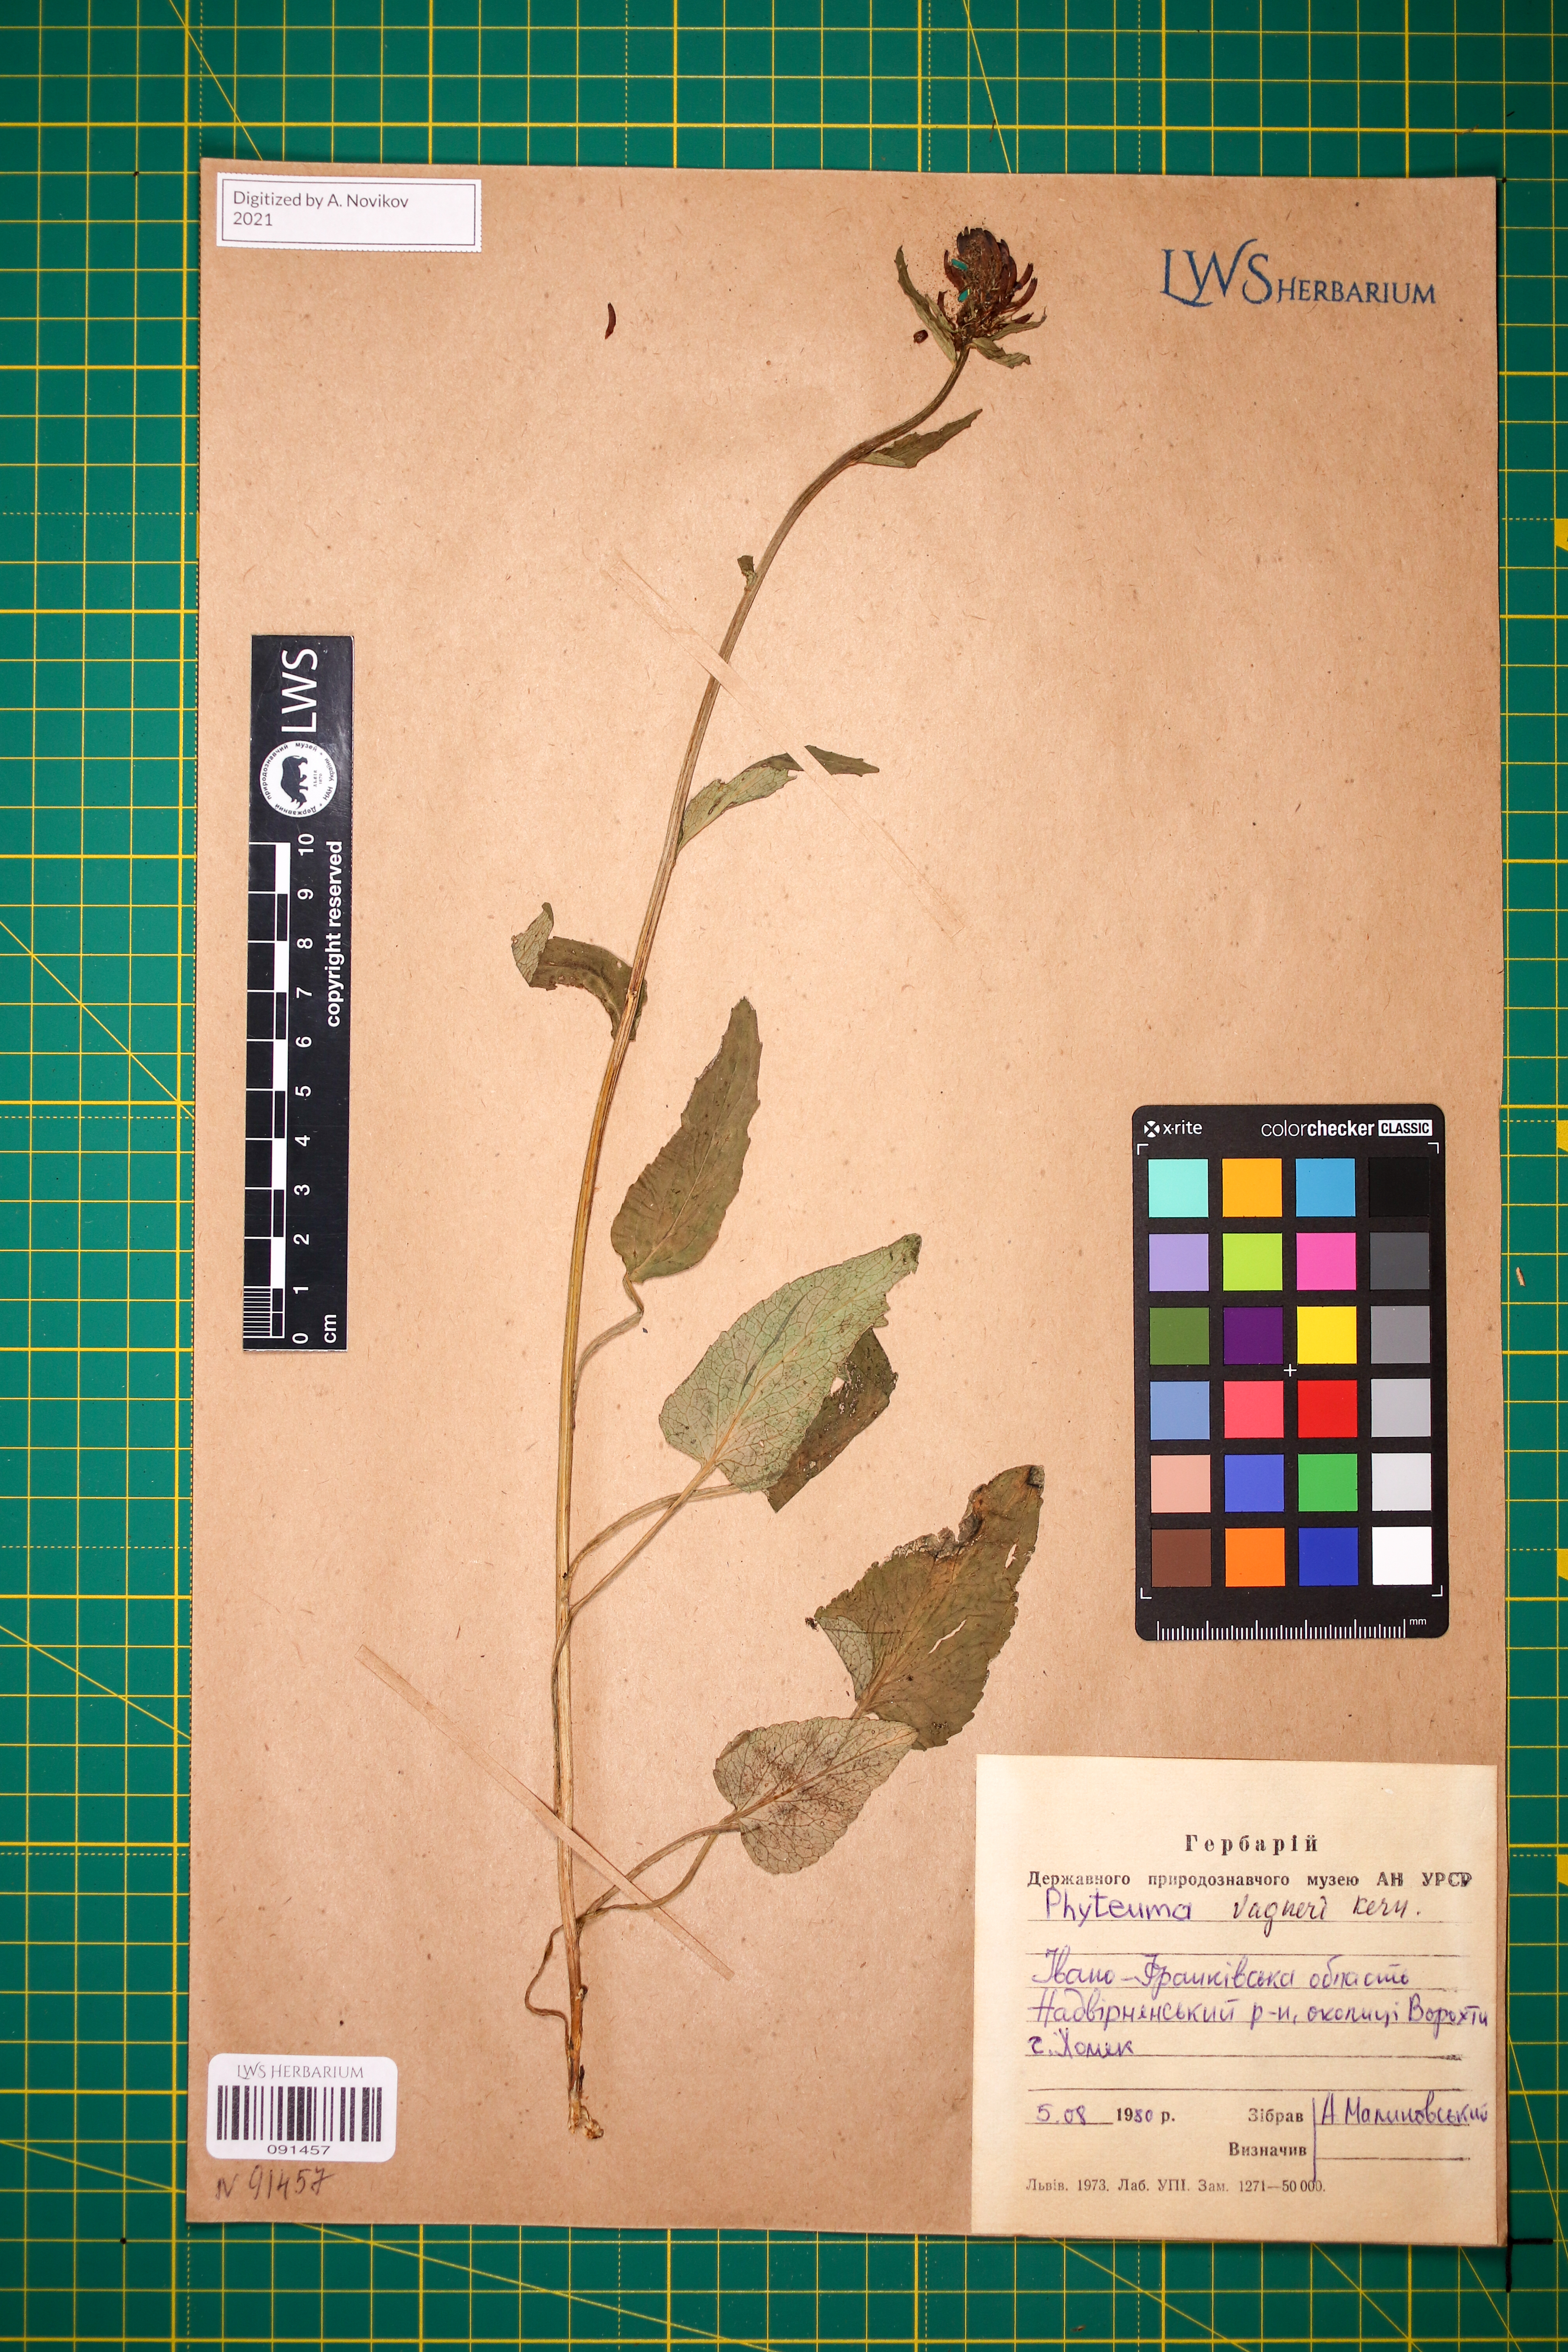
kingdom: Plantae
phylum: Tracheophyta
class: Magnoliopsida
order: Asterales
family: Campanulaceae
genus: Phyteuma
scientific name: Phyteuma vagneri
